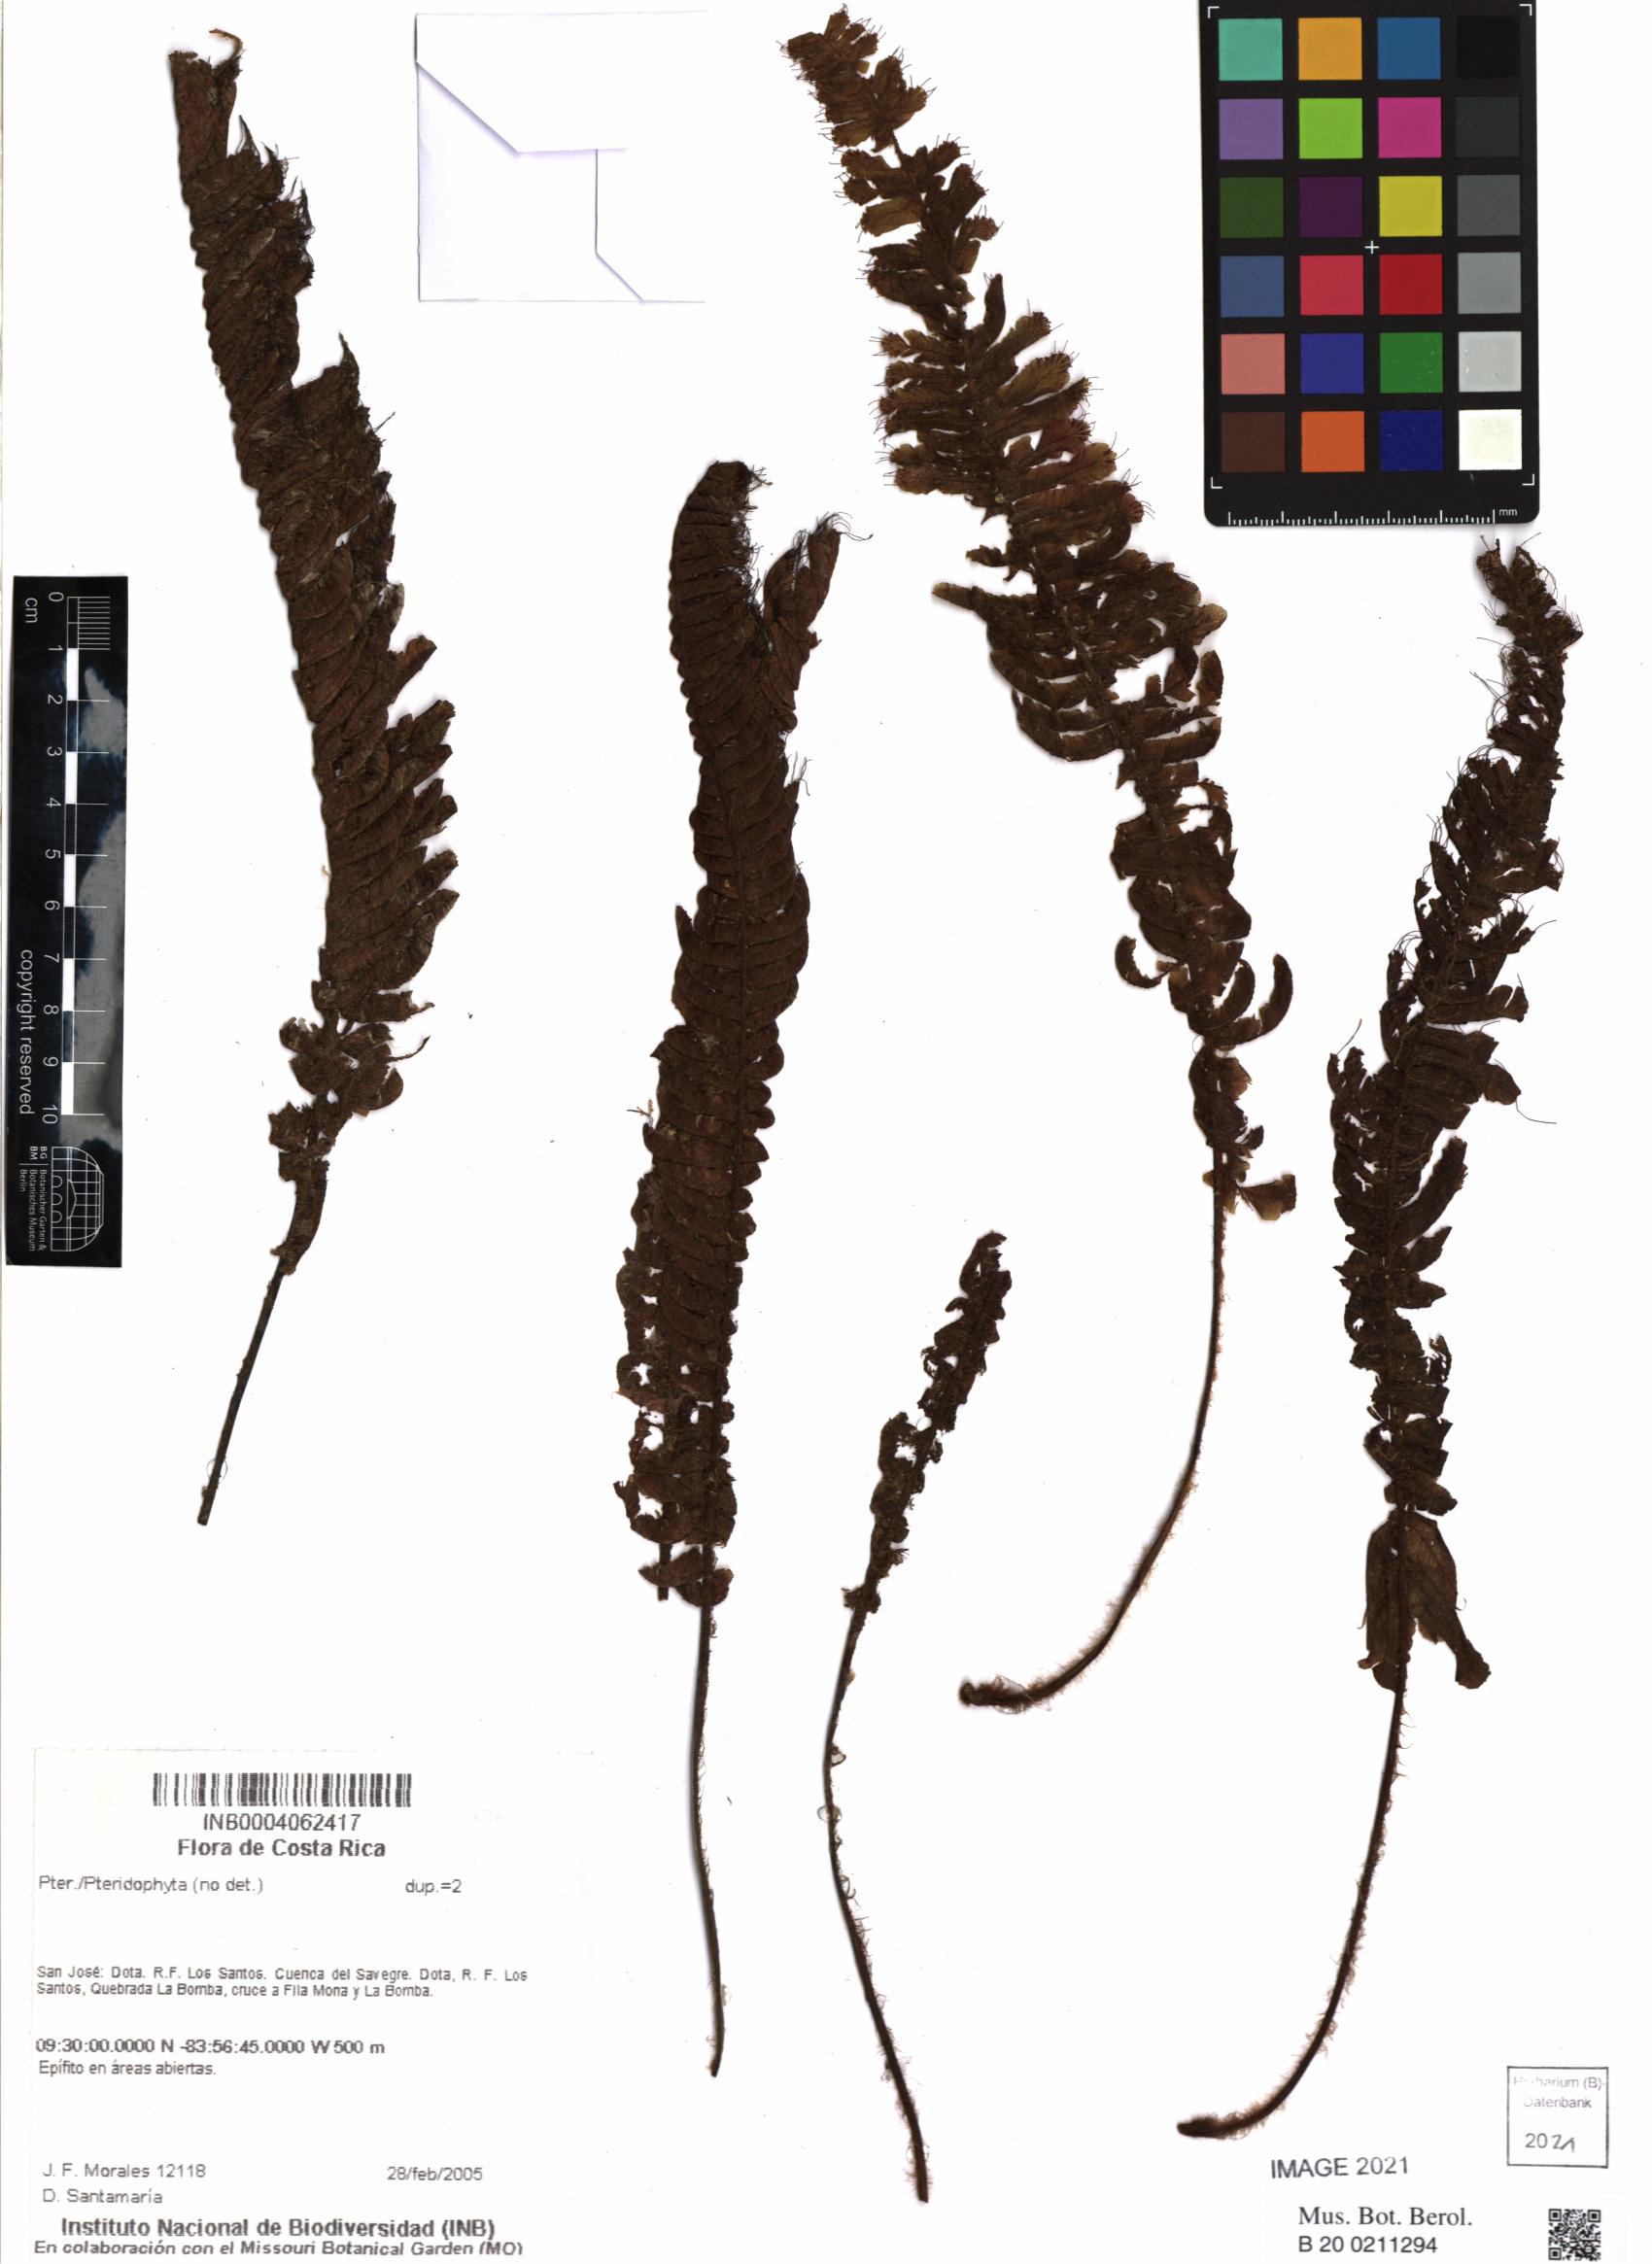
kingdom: Plantae
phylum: Tracheophyta
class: Polypodiopsida
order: Hymenophyllales
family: Hymenophyllaceae
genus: Trichomanes
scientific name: Trichomanes crispum
